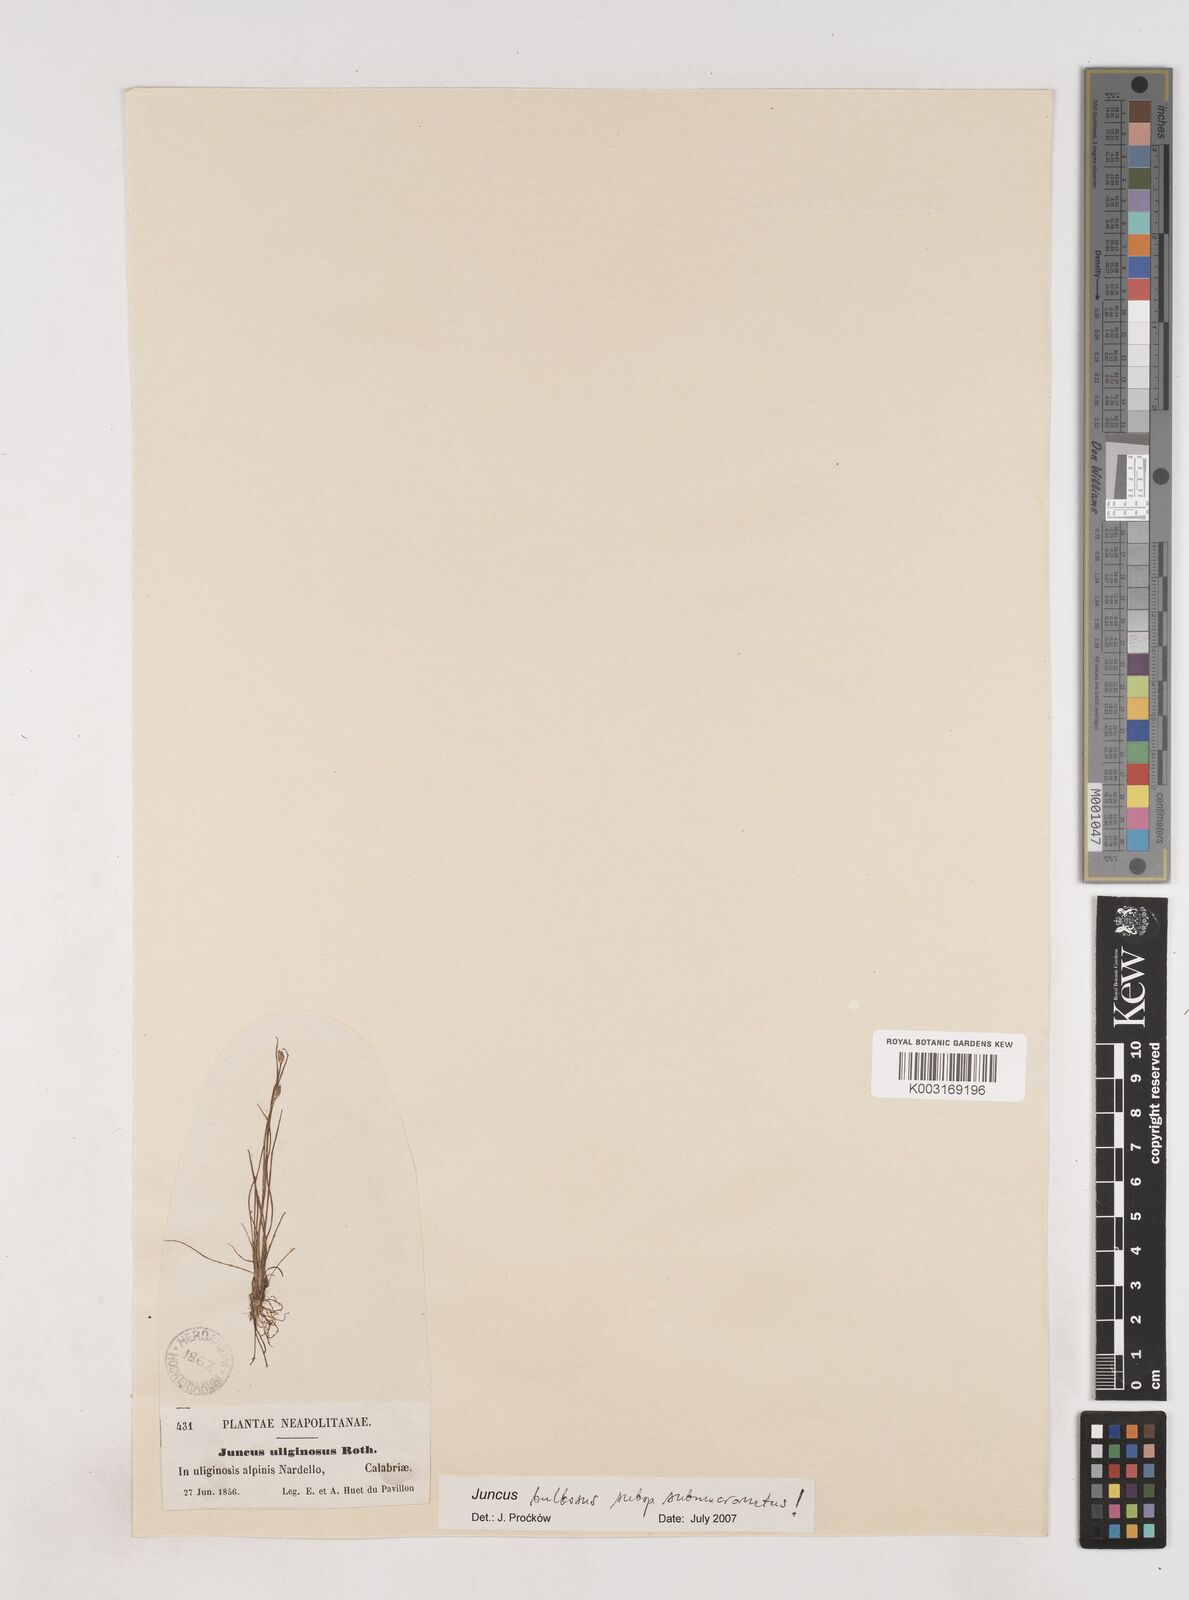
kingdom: Plantae
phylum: Tracheophyta
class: Liliopsida
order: Poales
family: Juncaceae
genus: Juncus
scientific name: Juncus bulbosus
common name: Bulbous rush
